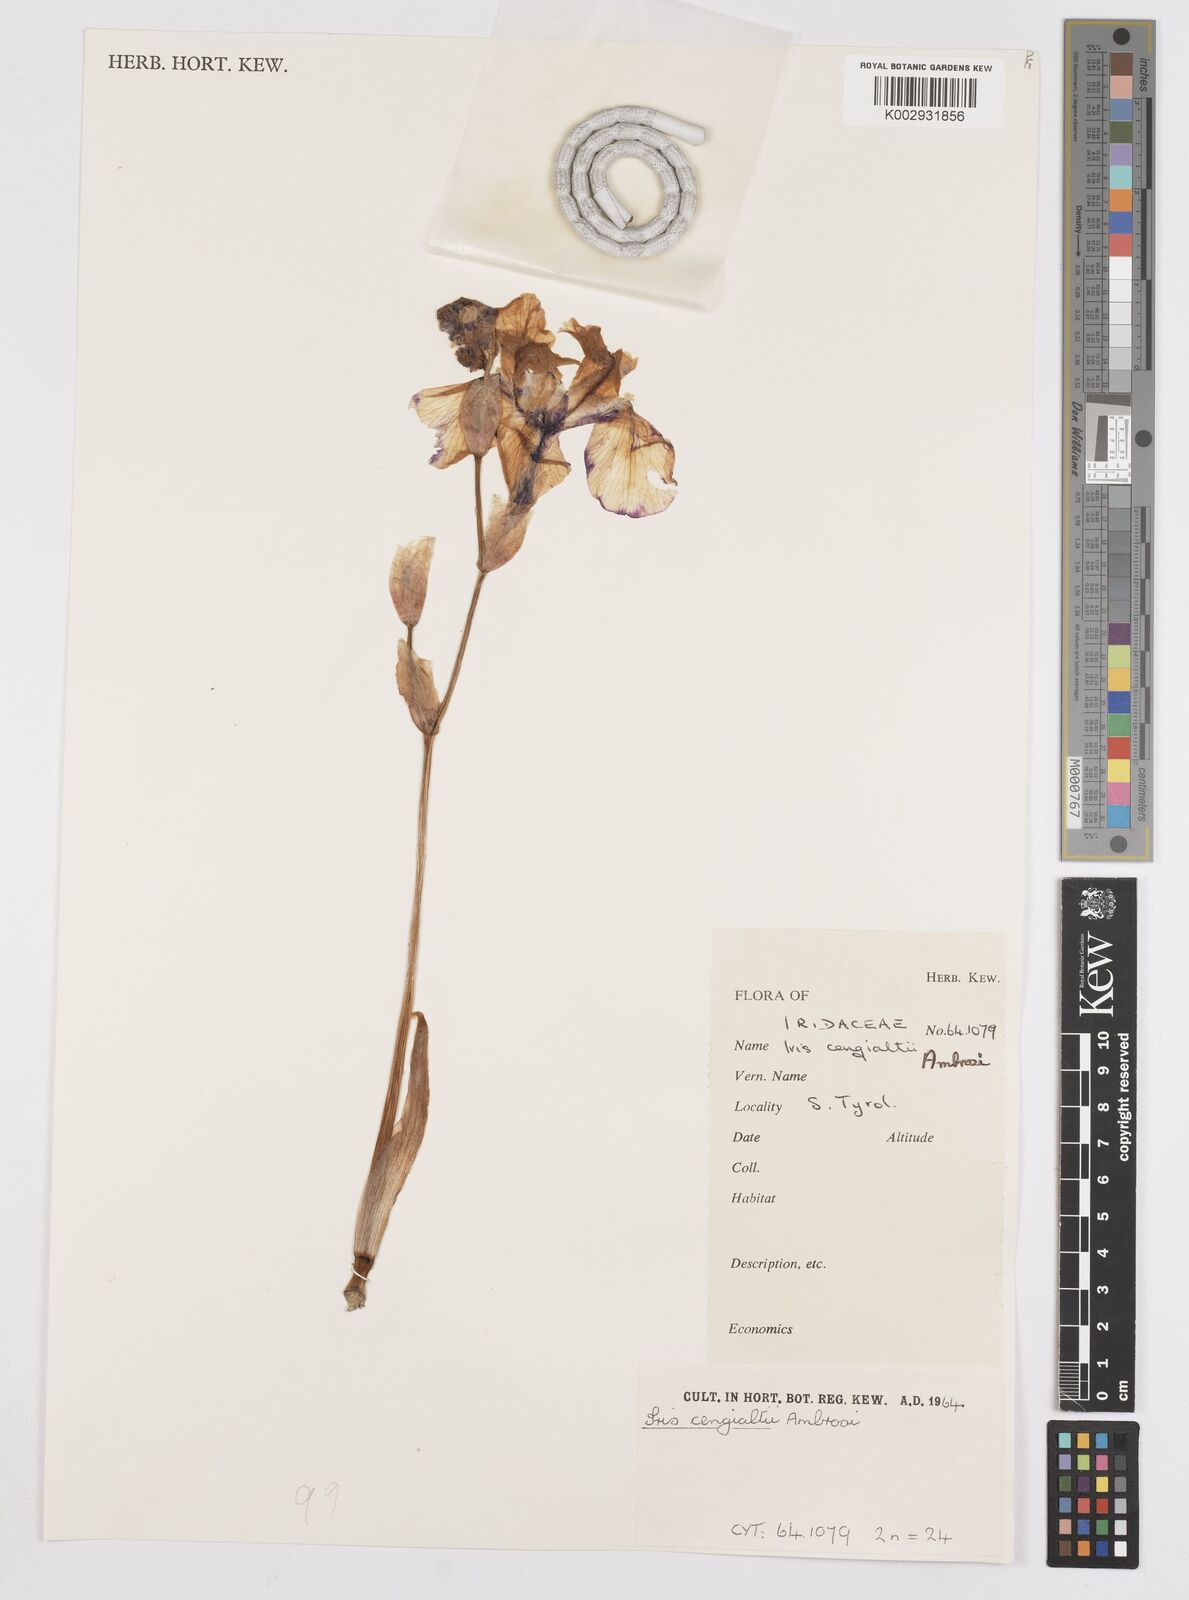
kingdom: Plantae
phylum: Tracheophyta
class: Liliopsida
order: Asparagales
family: Iridaceae
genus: Iris
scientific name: Iris pallida
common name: Sweet iris
